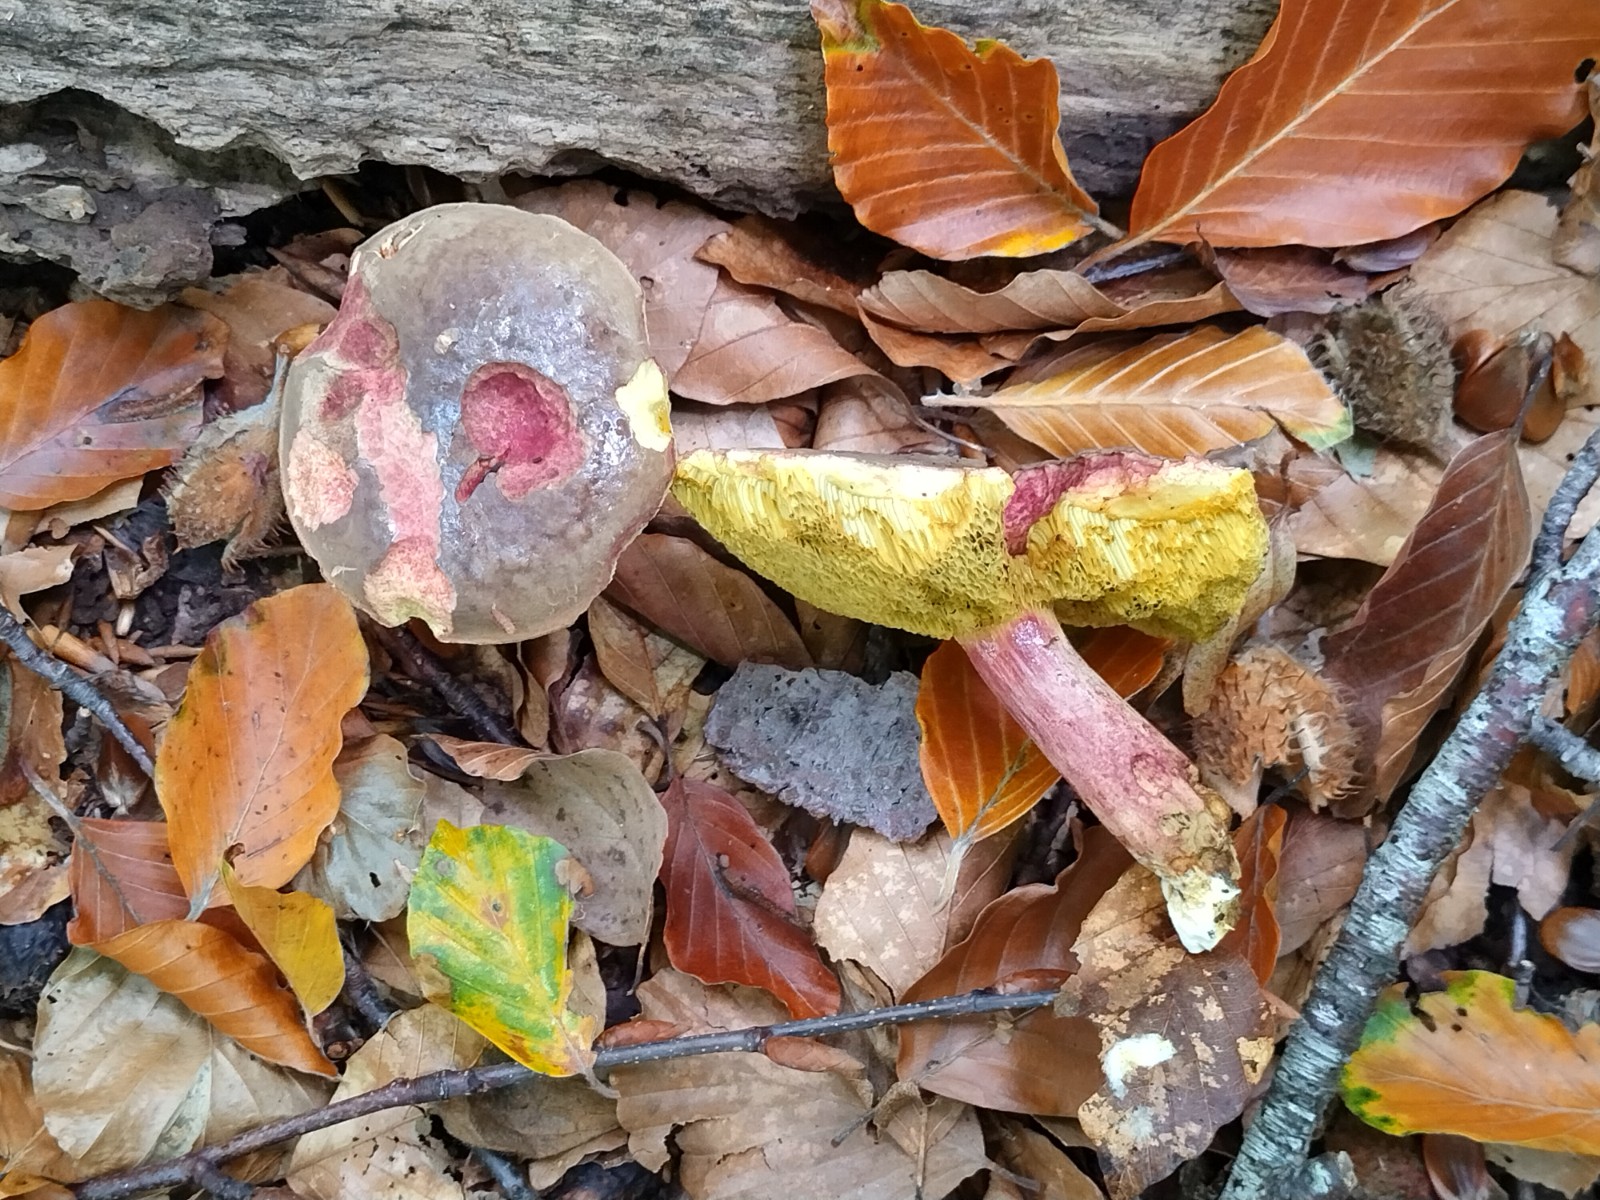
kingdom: Fungi
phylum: Basidiomycota
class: Agaricomycetes
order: Boletales
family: Boletaceae
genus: Xerocomellus
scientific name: Xerocomellus chrysenteron
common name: rødsprukken rørhat
